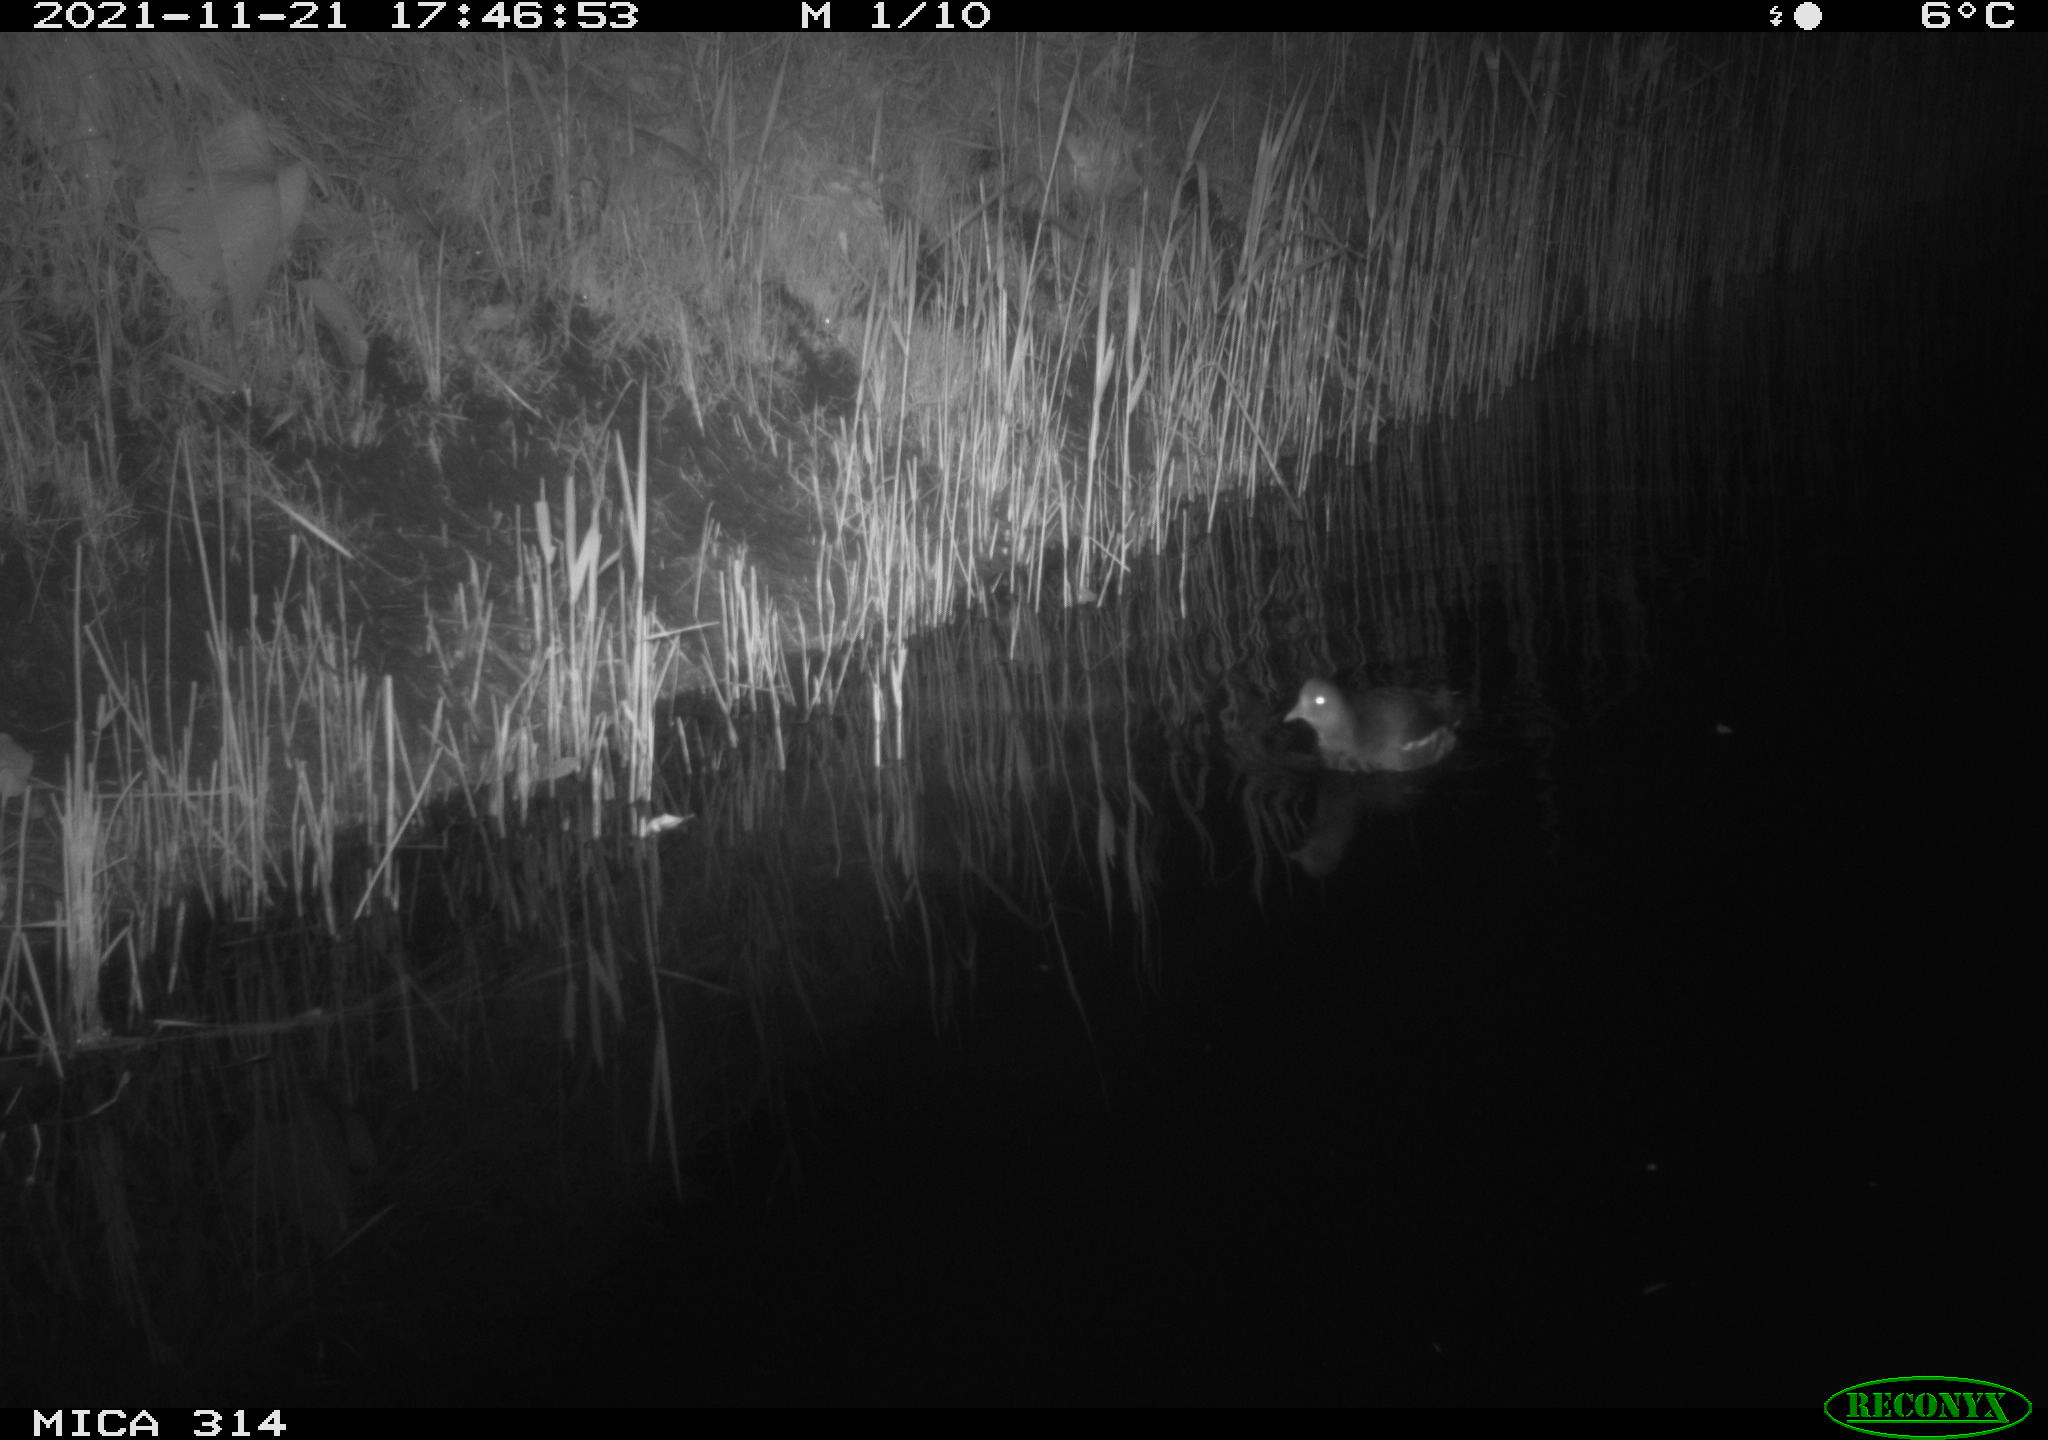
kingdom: Animalia
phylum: Chordata
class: Aves
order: Gruiformes
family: Rallidae
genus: Gallinula
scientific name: Gallinula chloropus
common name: Common moorhen
